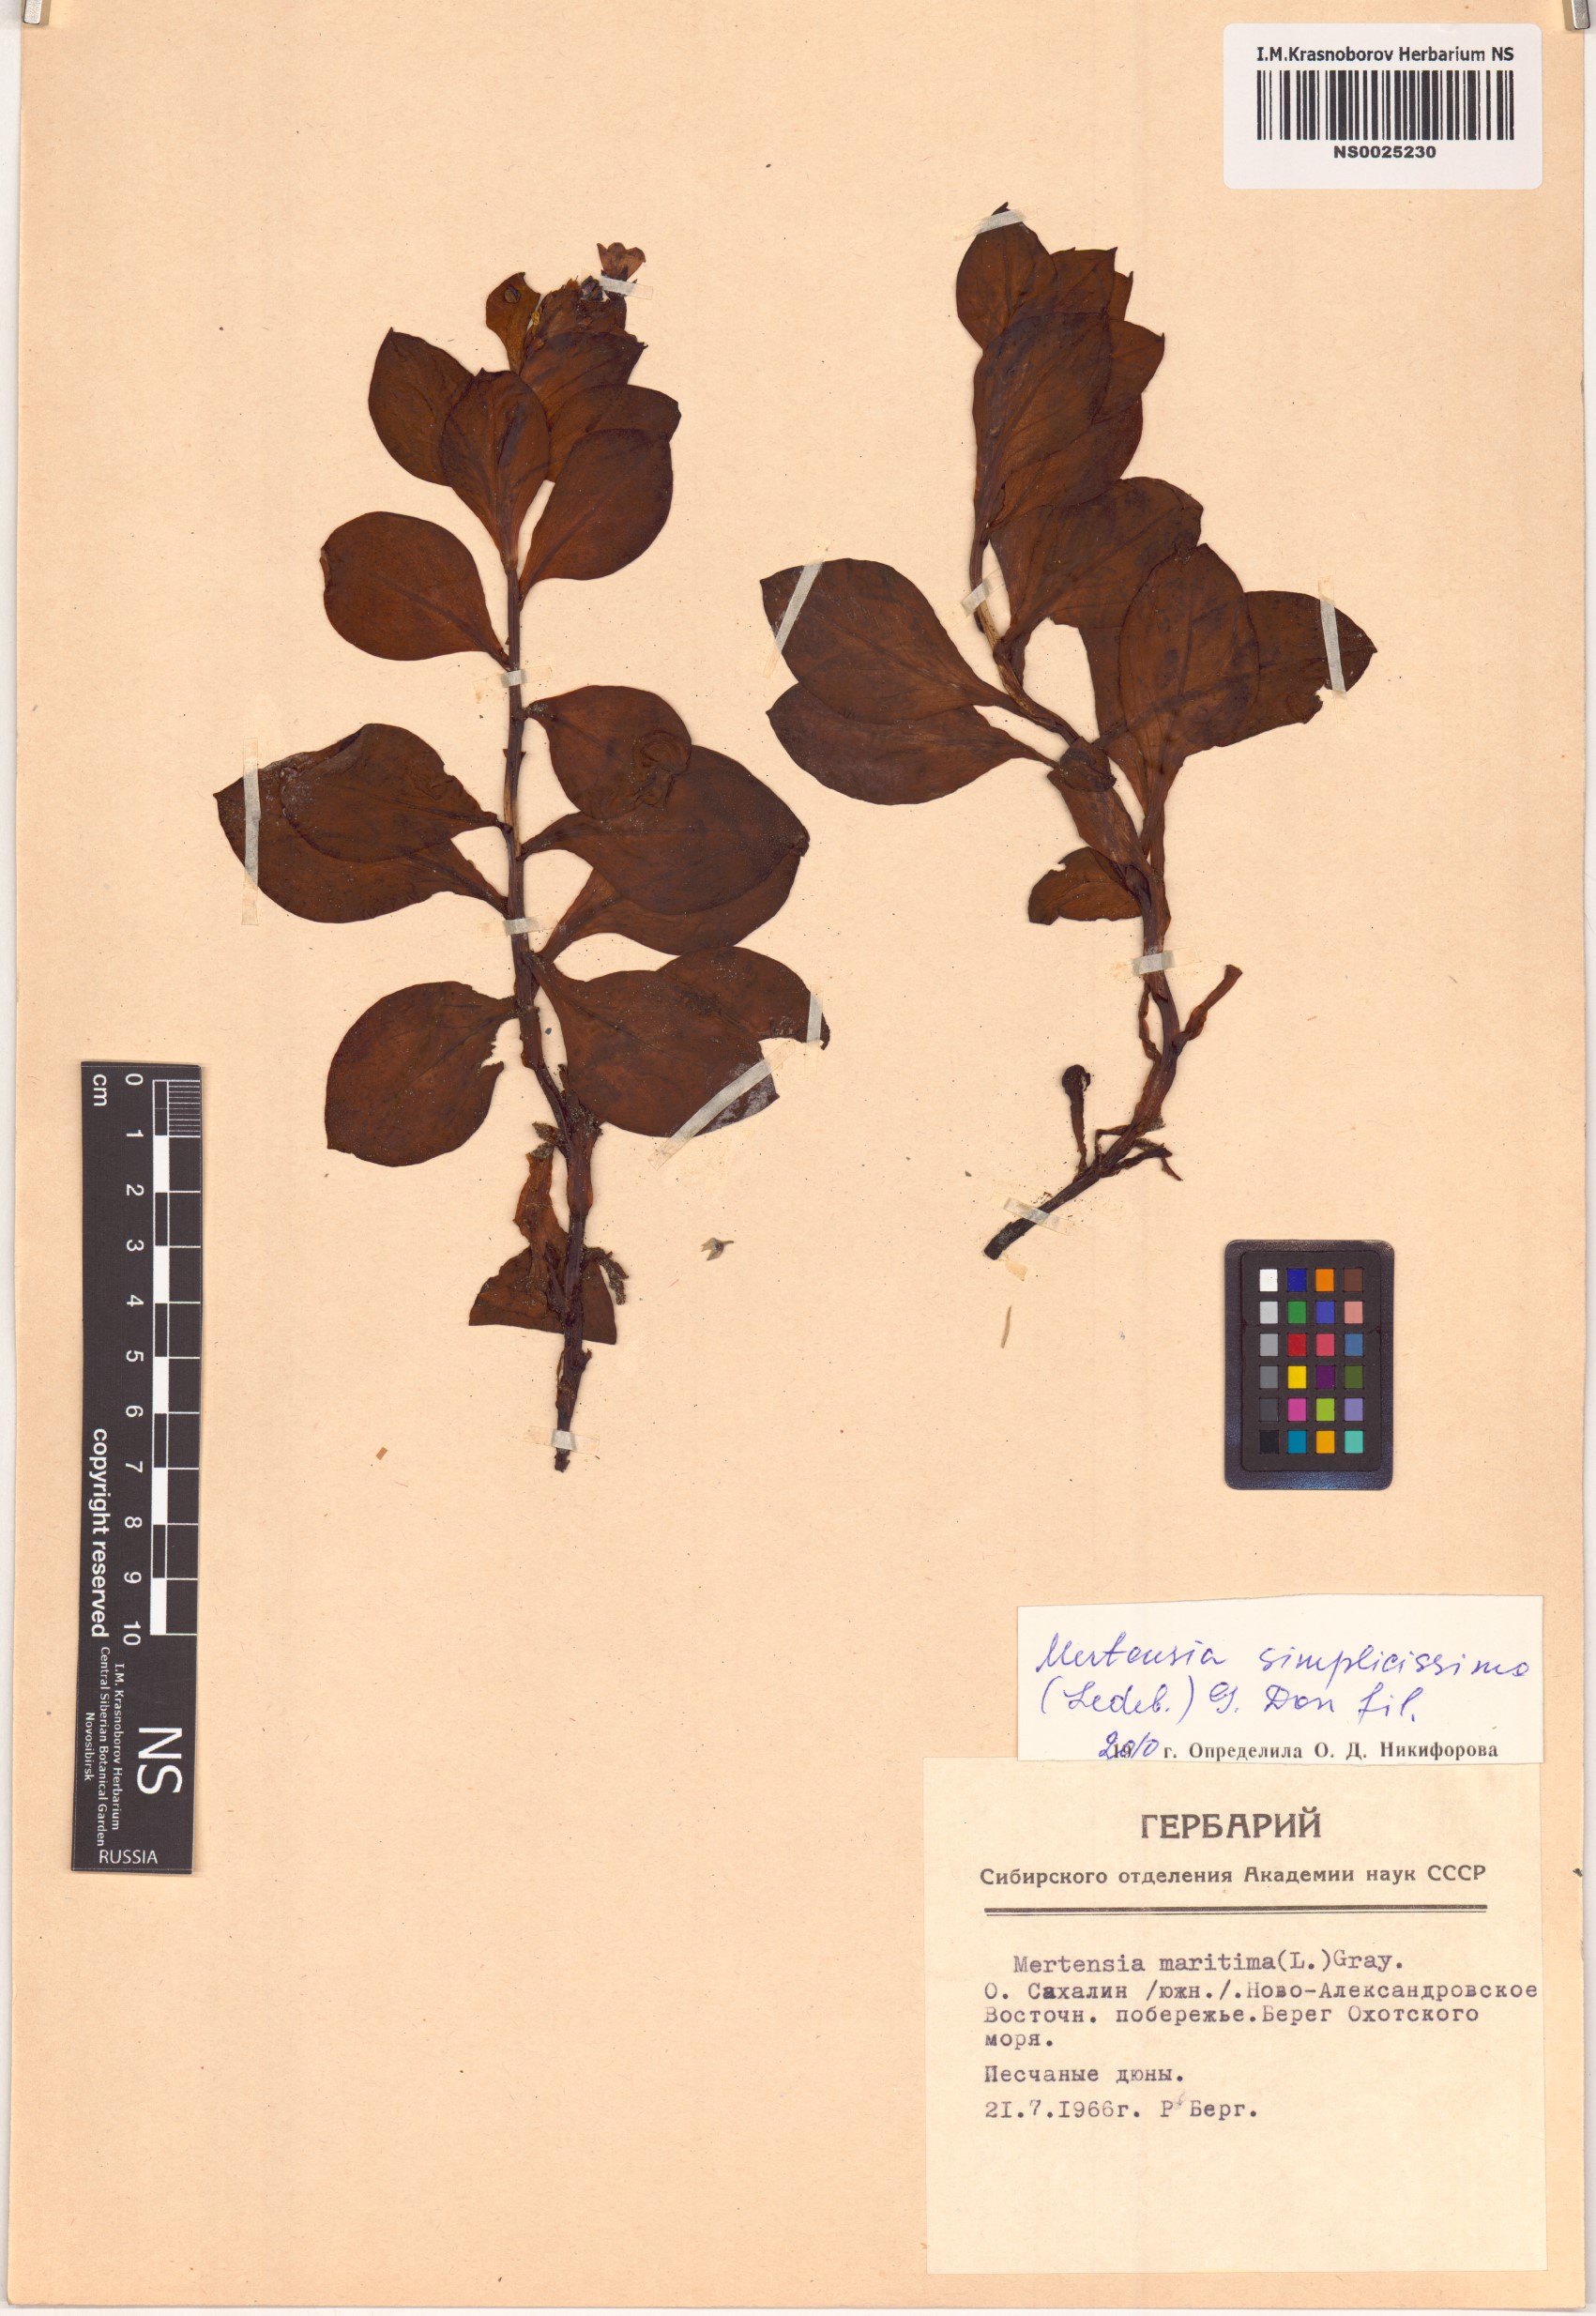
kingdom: Plantae
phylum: Tracheophyta
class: Magnoliopsida
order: Boraginales
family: Boraginaceae
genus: Mertensia
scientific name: Mertensia simplicissima
